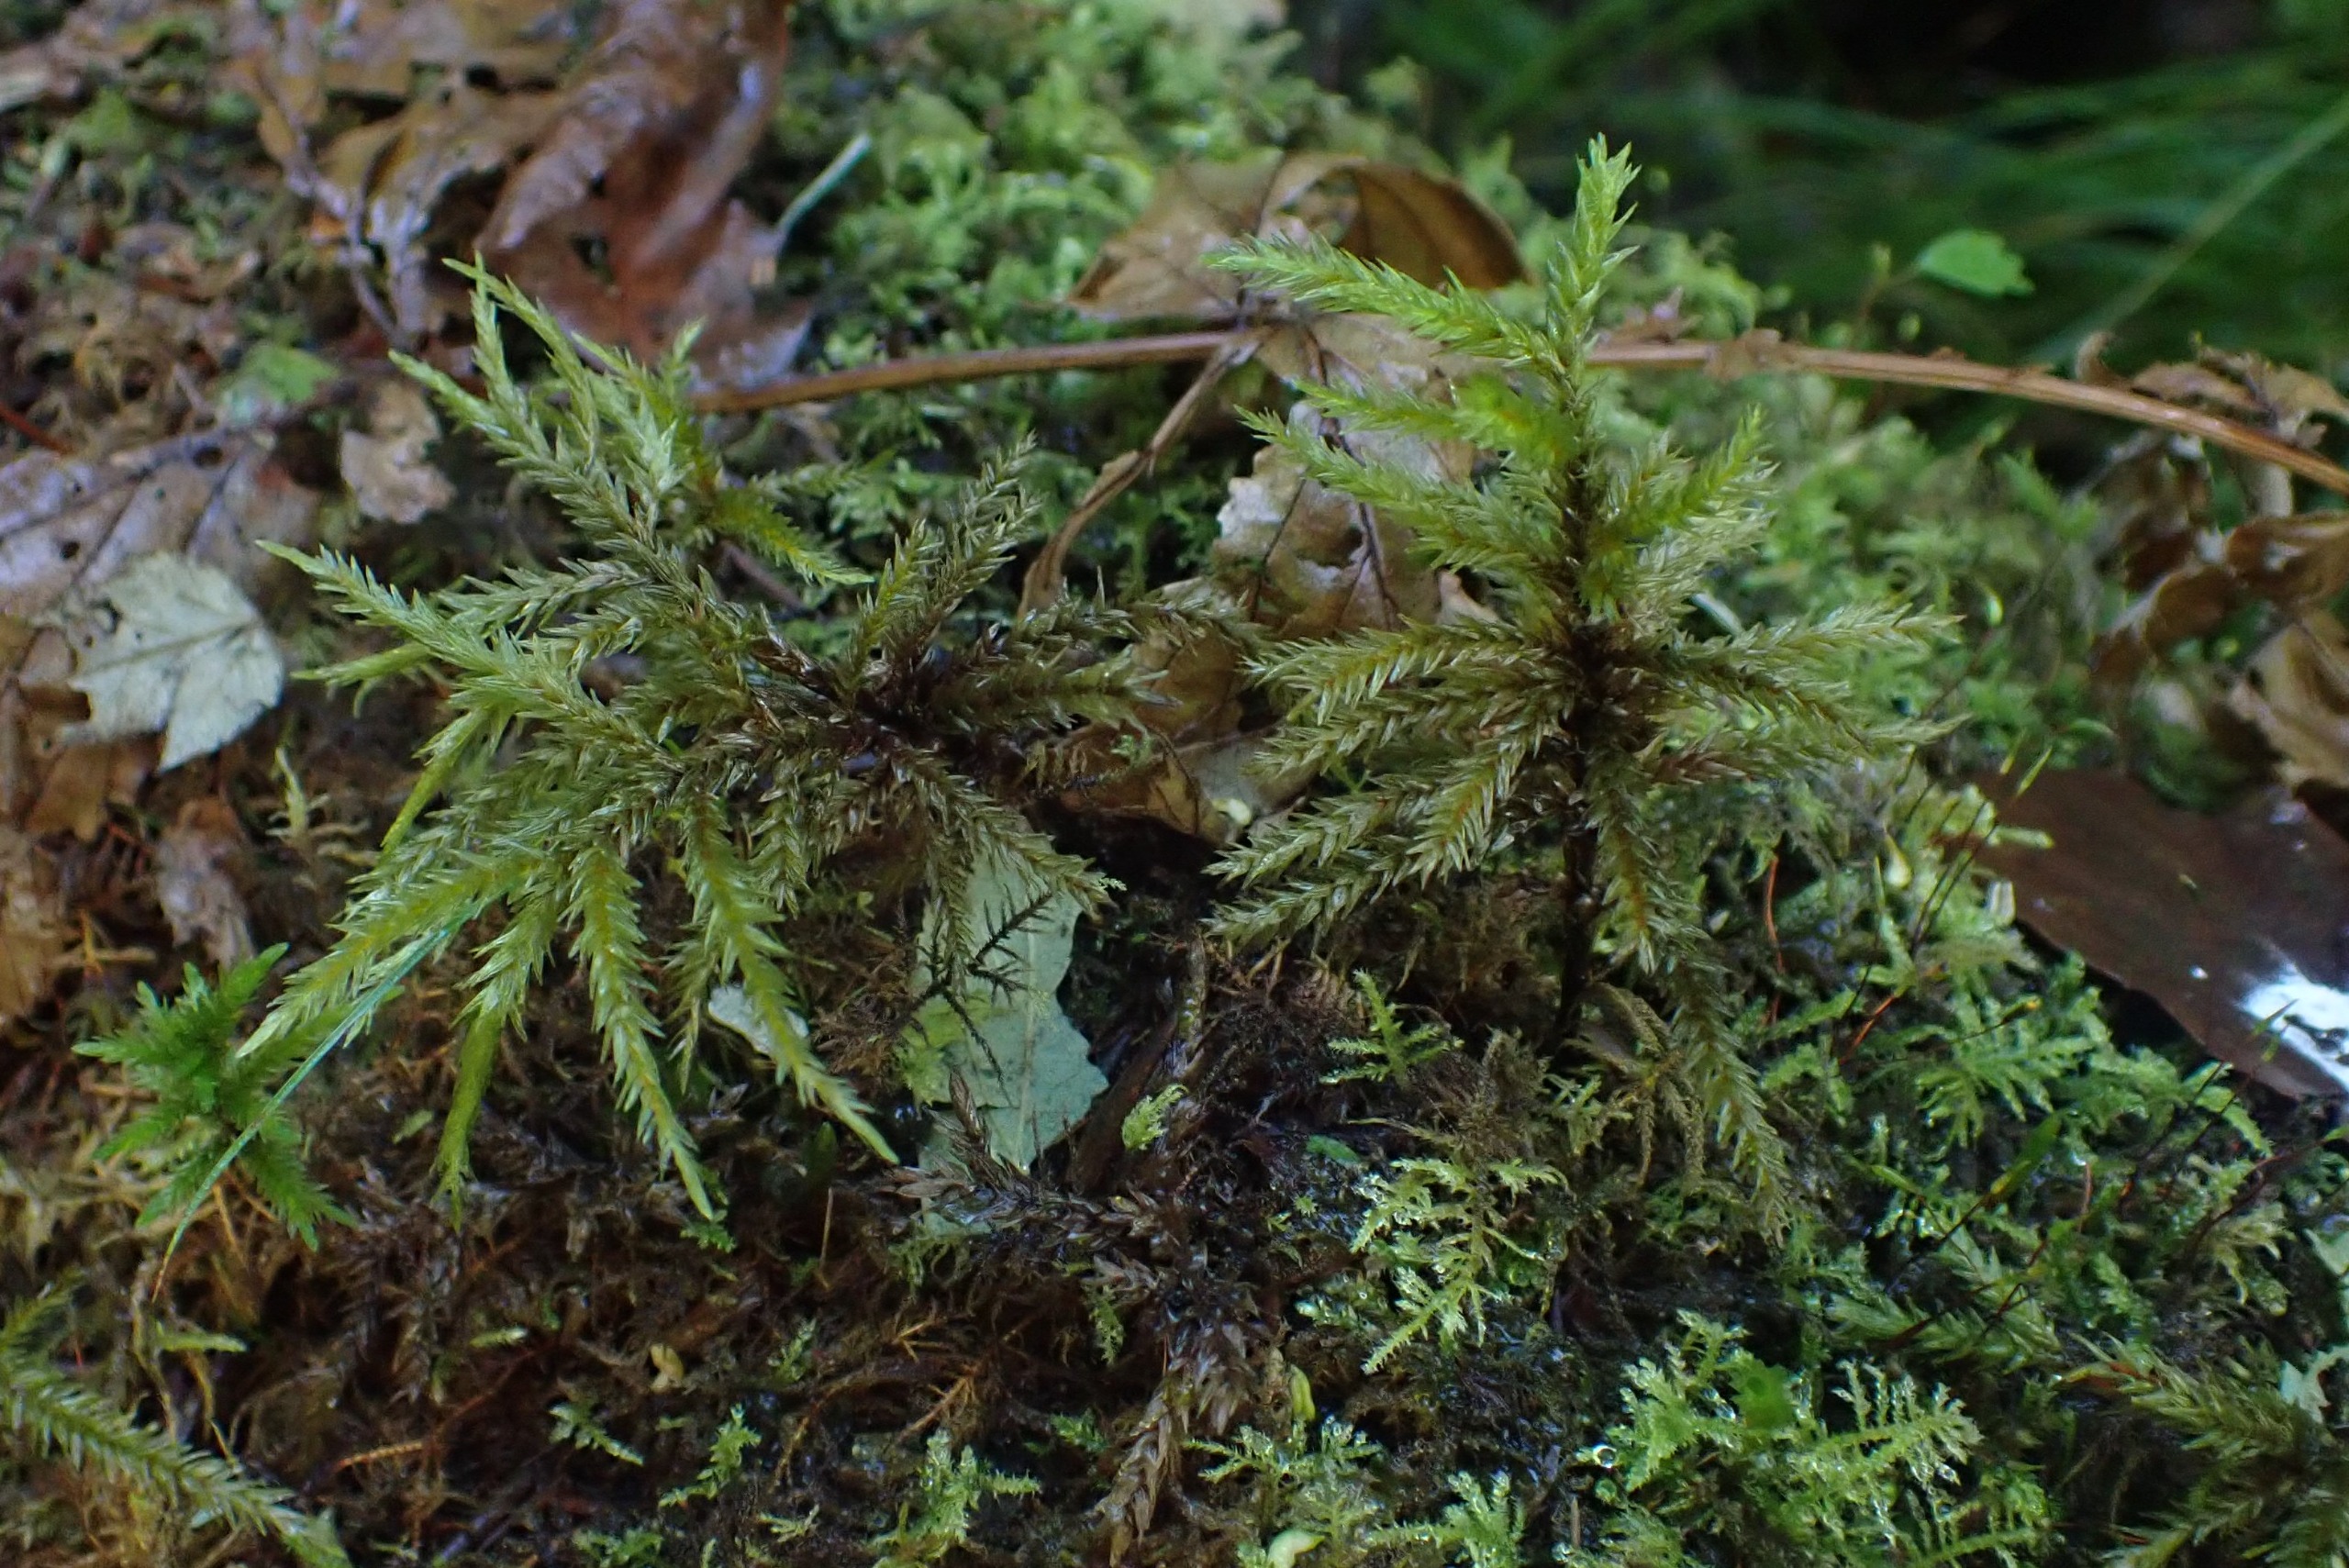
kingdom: Plantae
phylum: Bryophyta
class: Bryopsida
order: Hypnales
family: Climaciaceae
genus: Climacium
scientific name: Climacium dendroides
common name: Stor engkost
